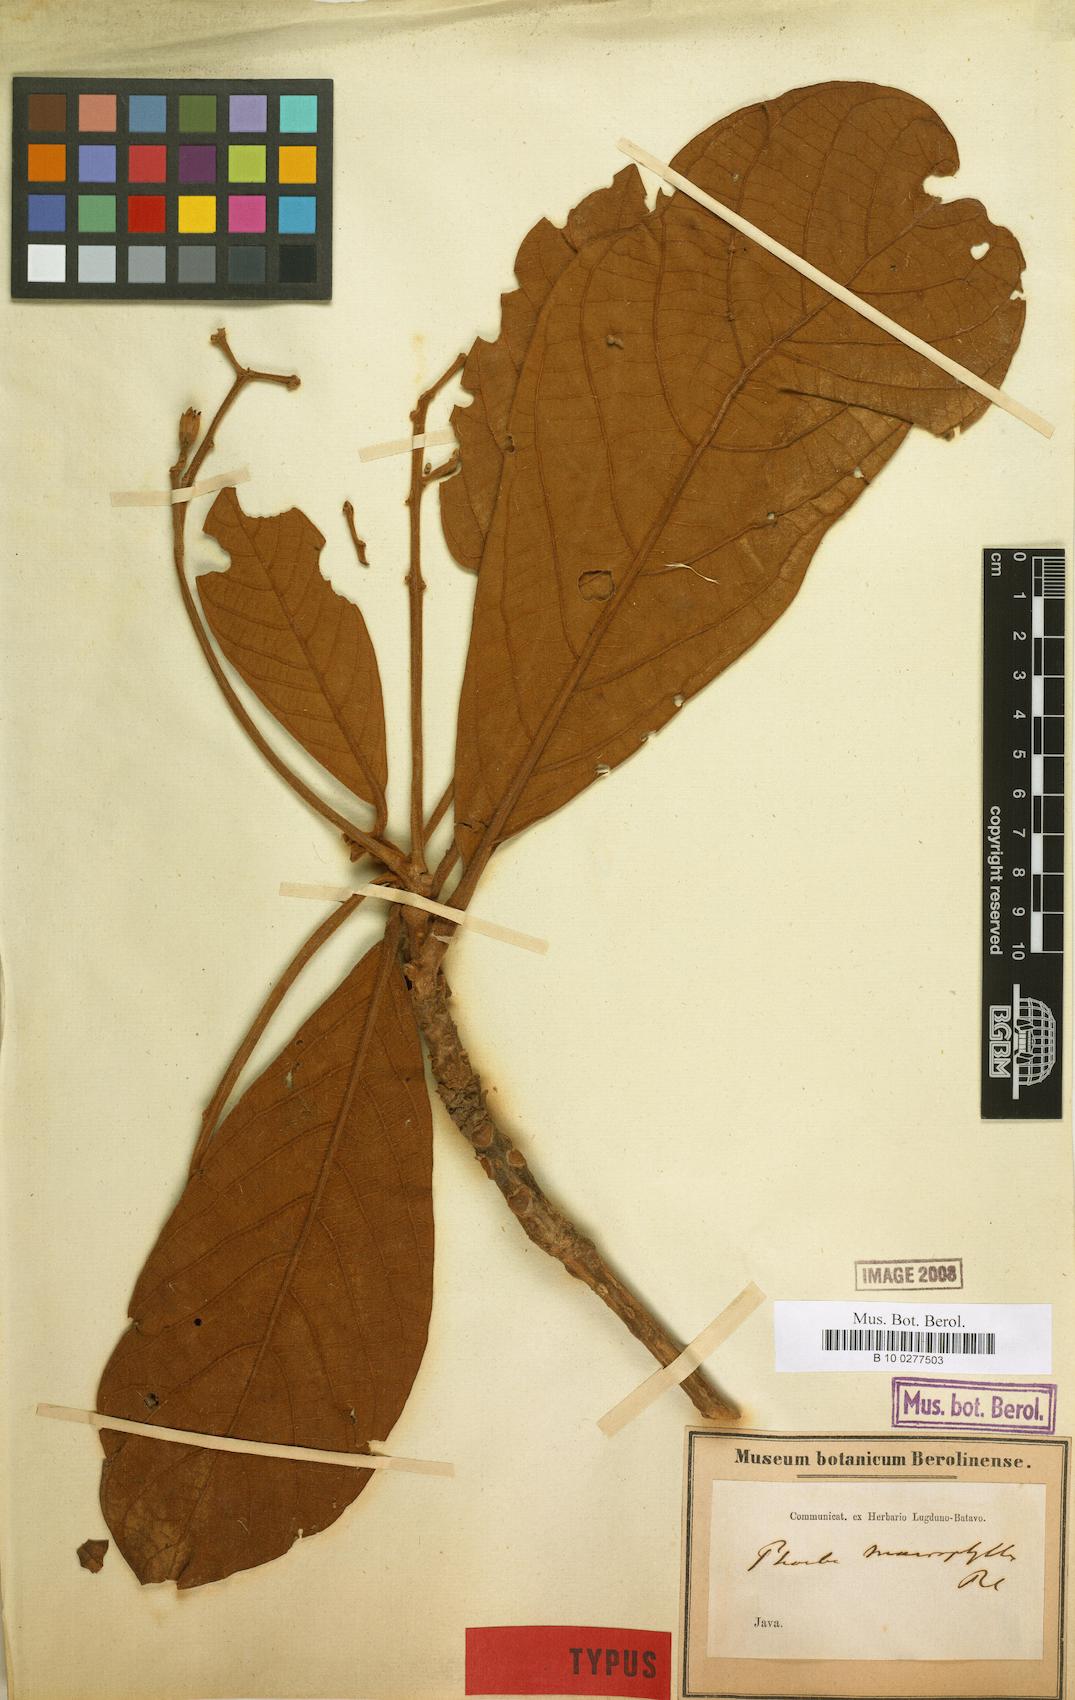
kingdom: Plantae
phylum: Tracheophyta
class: Magnoliopsida
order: Laurales
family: Lauraceae
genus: Ocotea
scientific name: Ocotea standleyi
